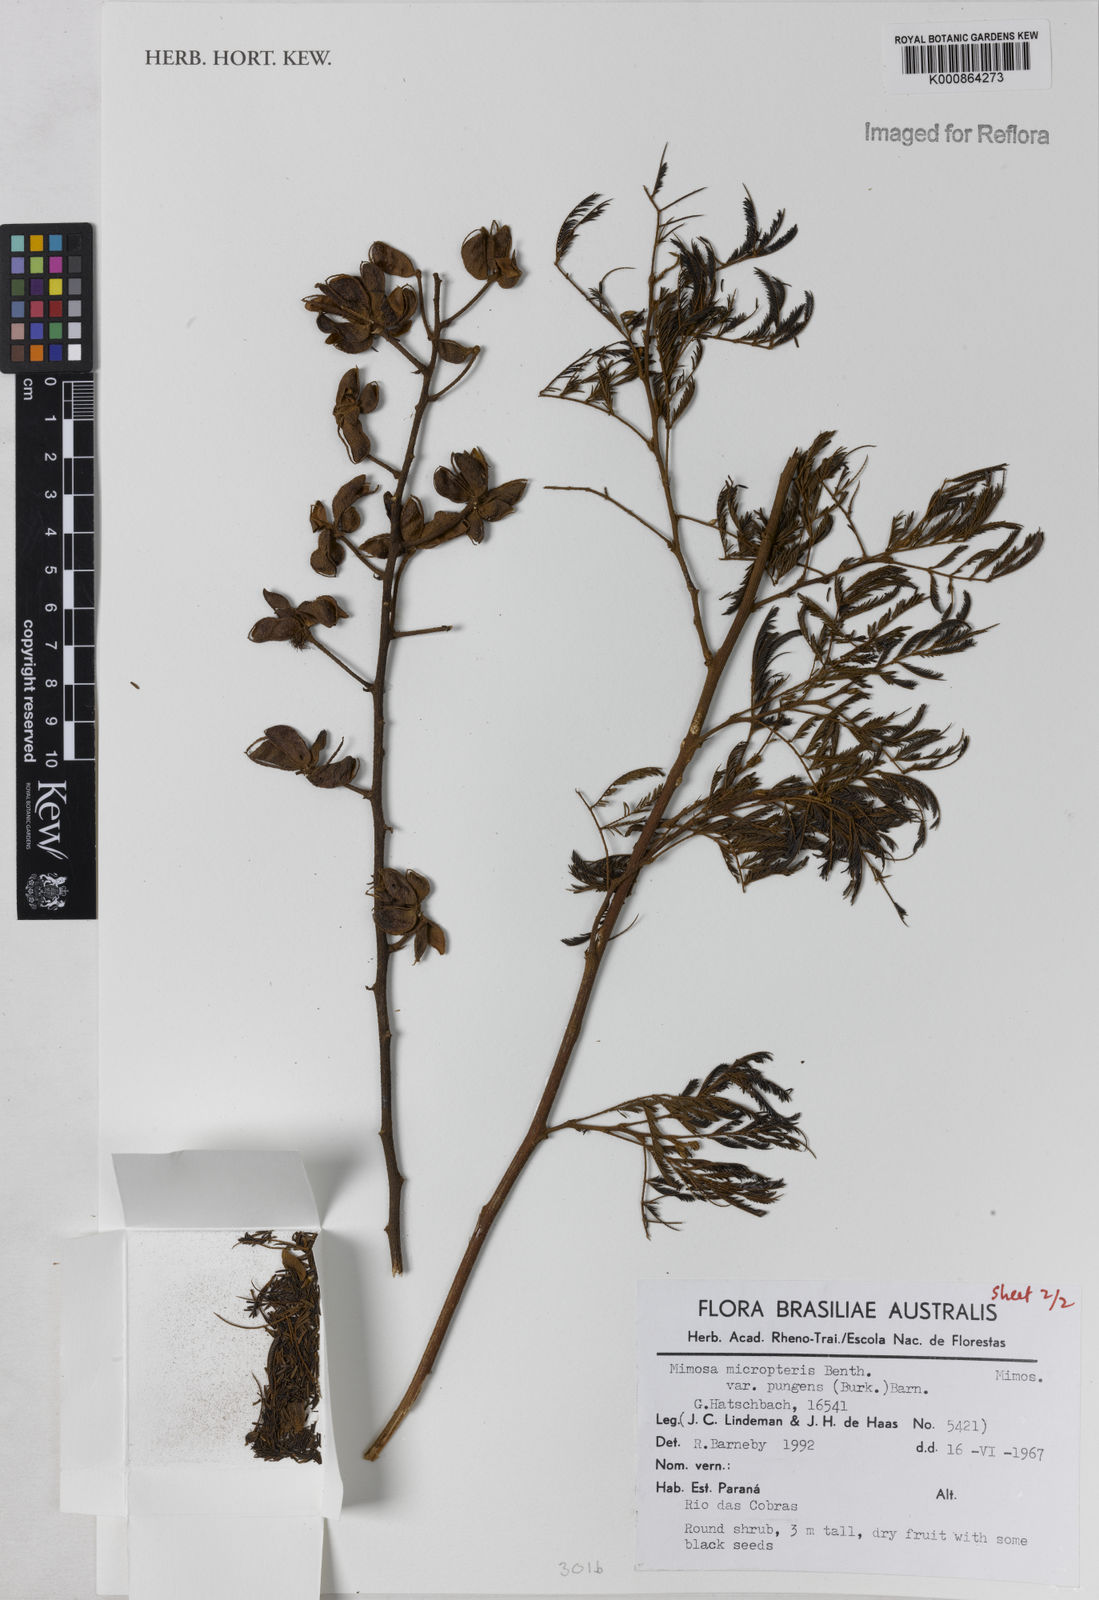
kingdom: Plantae
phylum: Tracheophyta
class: Magnoliopsida
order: Fabales
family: Fabaceae
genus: Mimosa
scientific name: Mimosa micropteris
